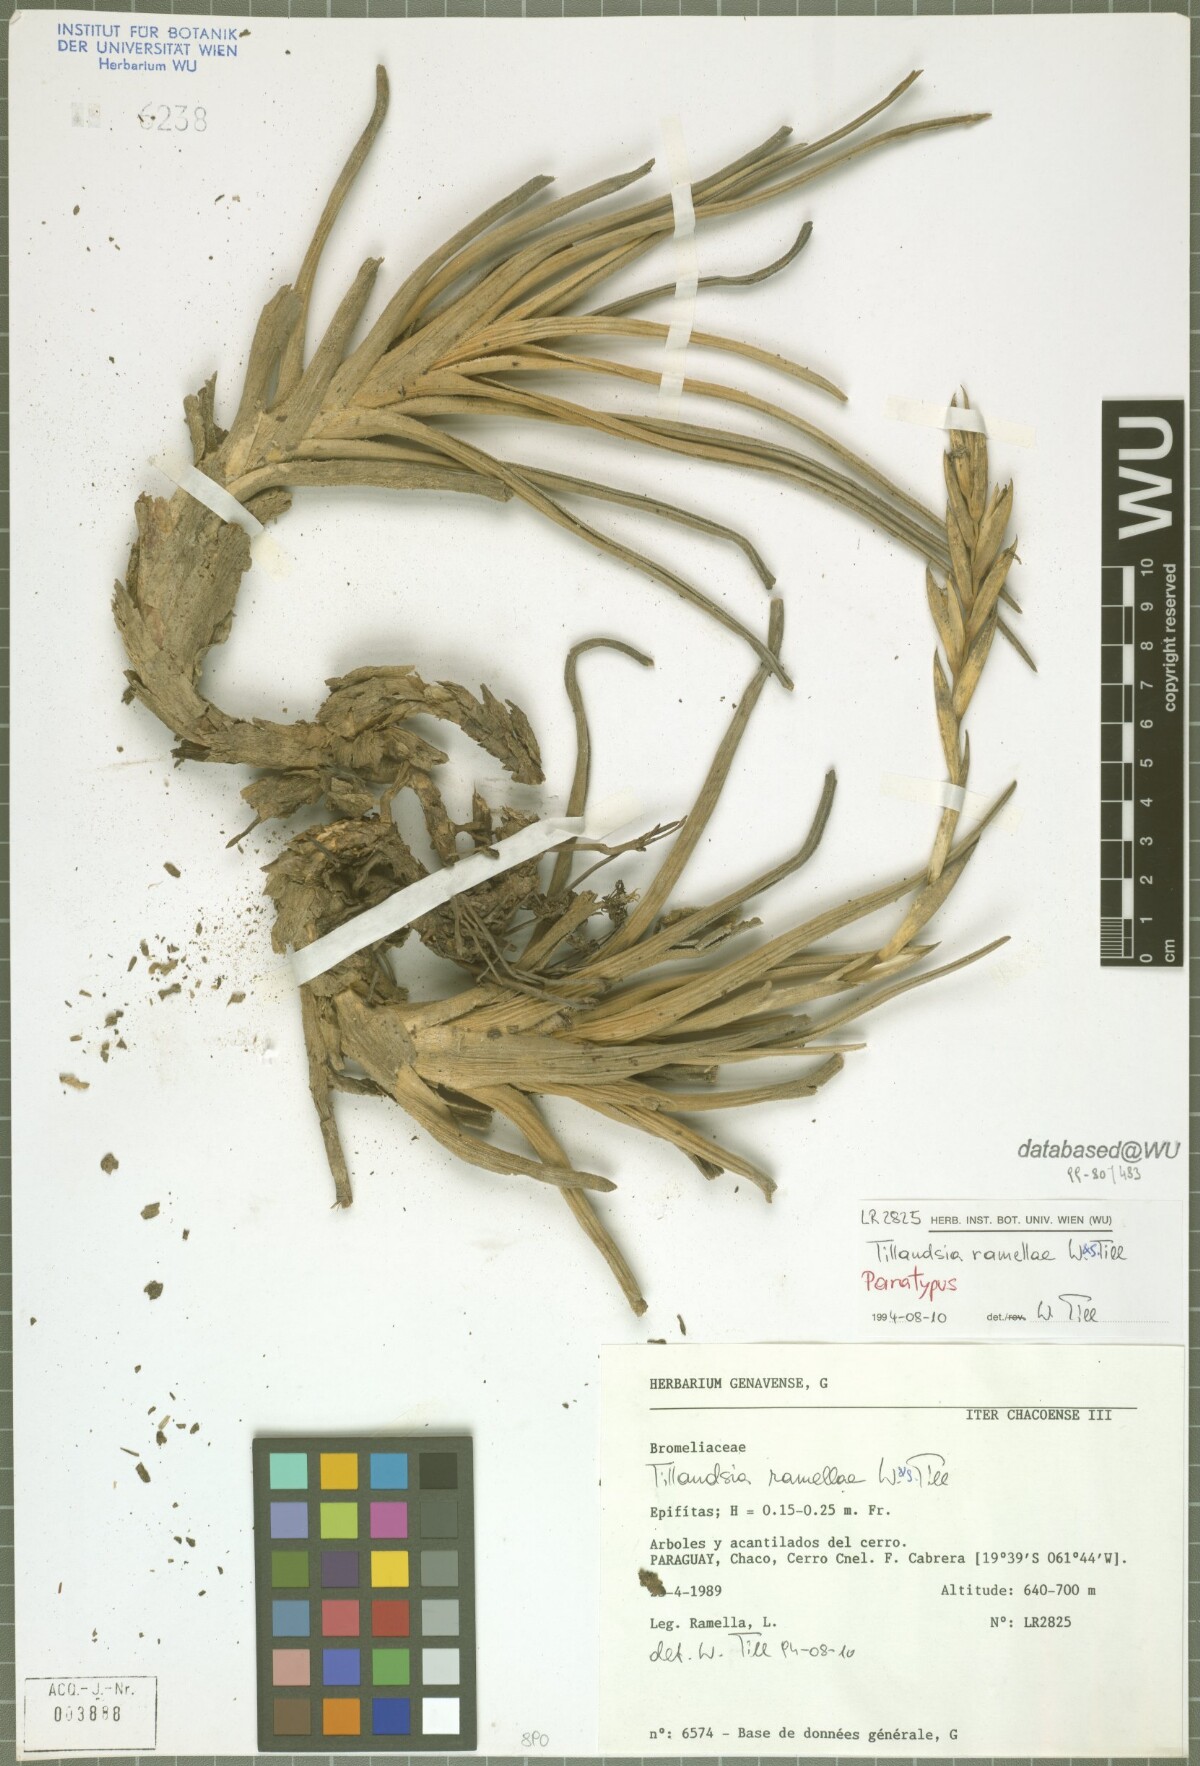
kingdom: Plantae
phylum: Tracheophyta
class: Liliopsida
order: Poales
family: Bromeliaceae
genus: Tillandsia
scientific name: Tillandsia ramellae
